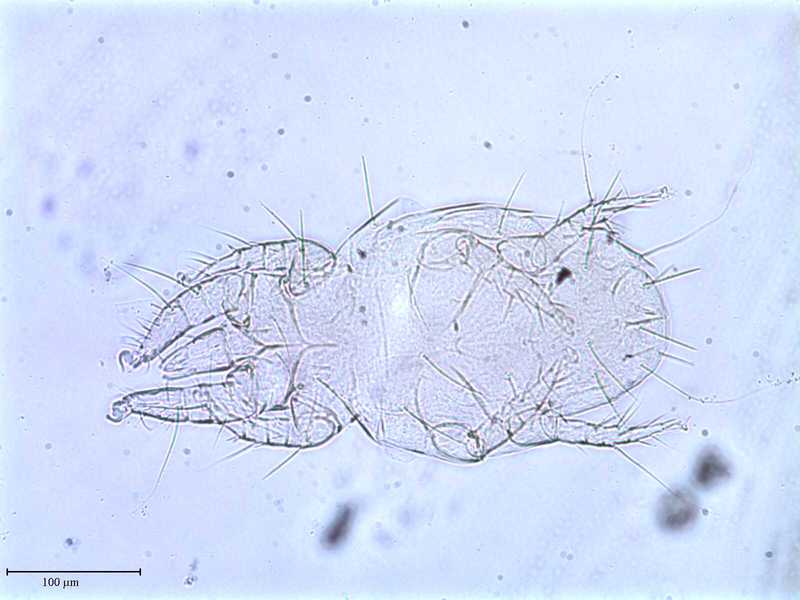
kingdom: Animalia
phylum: Arthropoda
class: Arachnida
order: Trombidiformes
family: Resinacaridae
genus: Resinacarus
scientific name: Resinacarus resinatus
